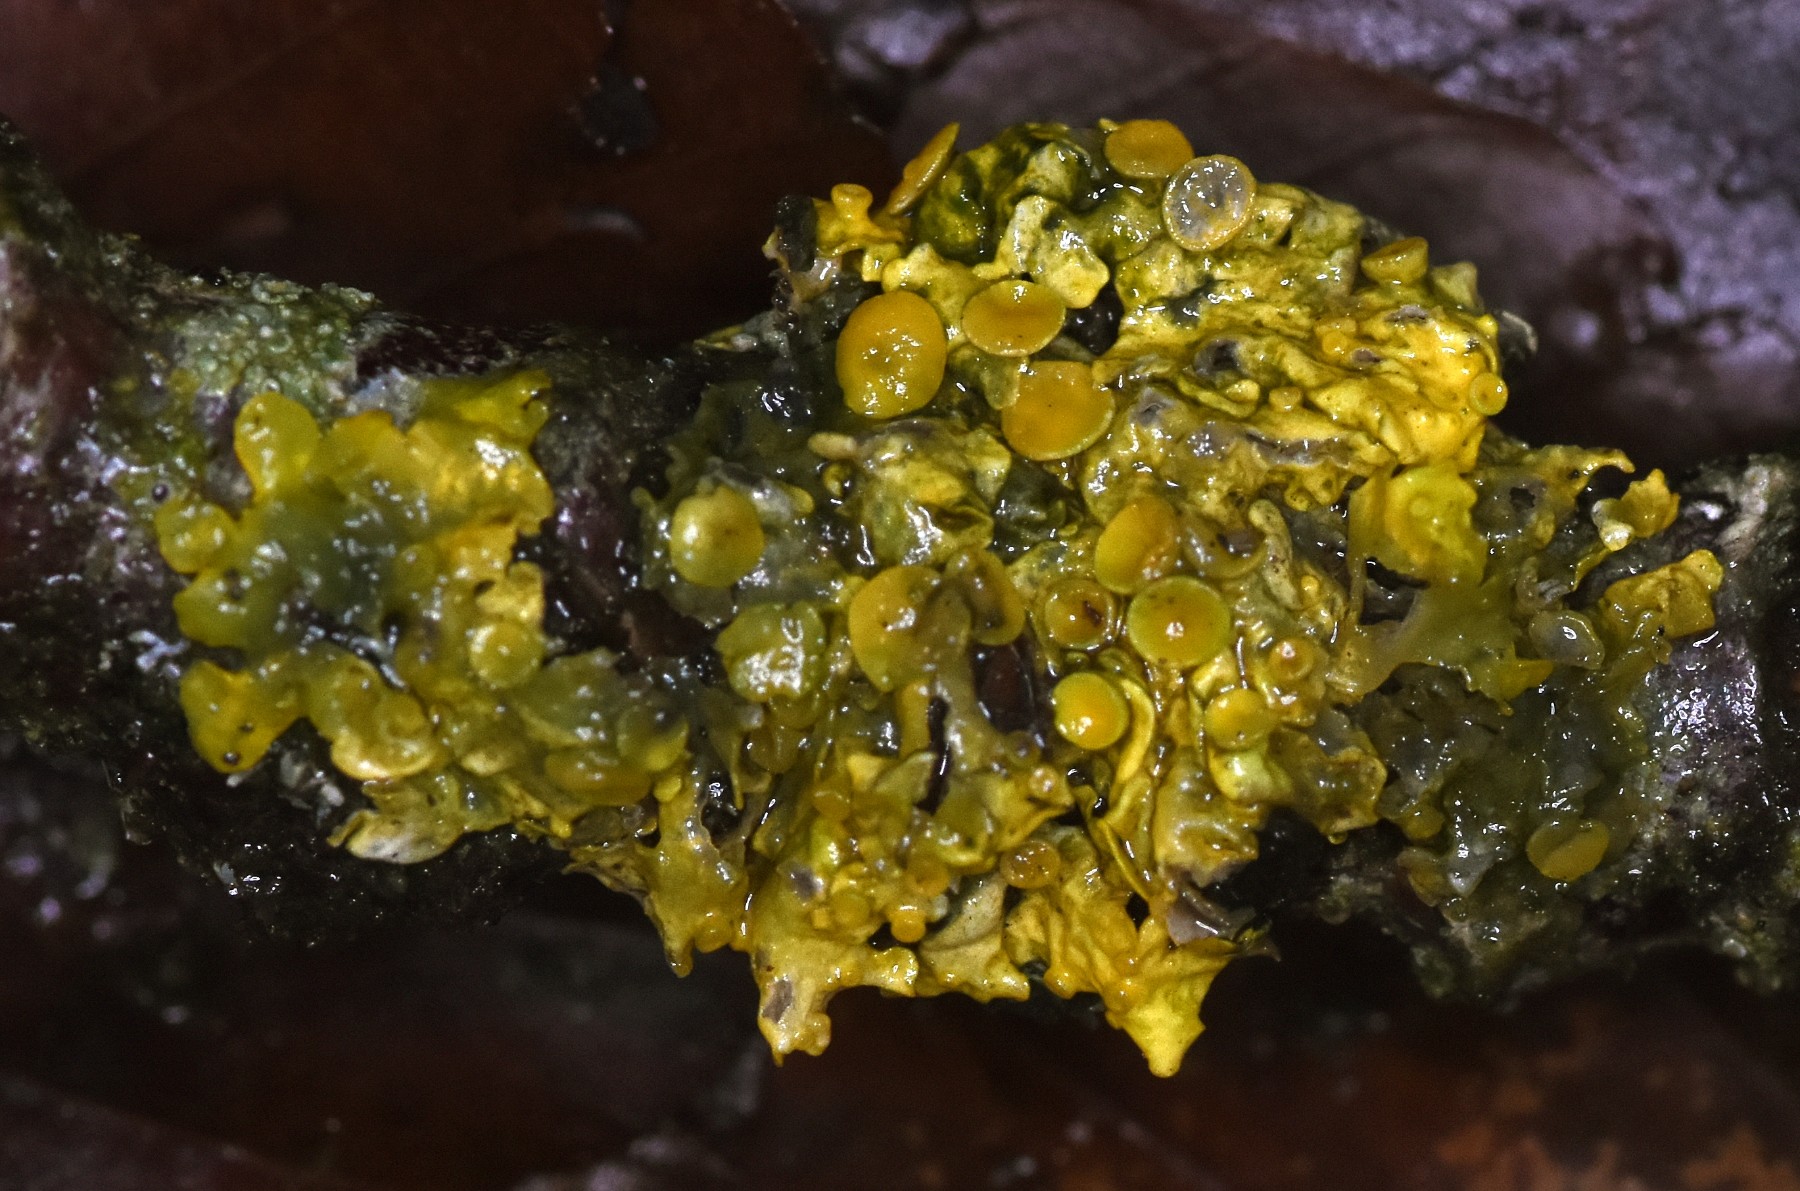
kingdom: Fungi
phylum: Ascomycota
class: Lecanoromycetes
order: Teloschistales
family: Teloschistaceae
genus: Xanthoria
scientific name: Xanthoria parietina
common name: almindelig væggelav
